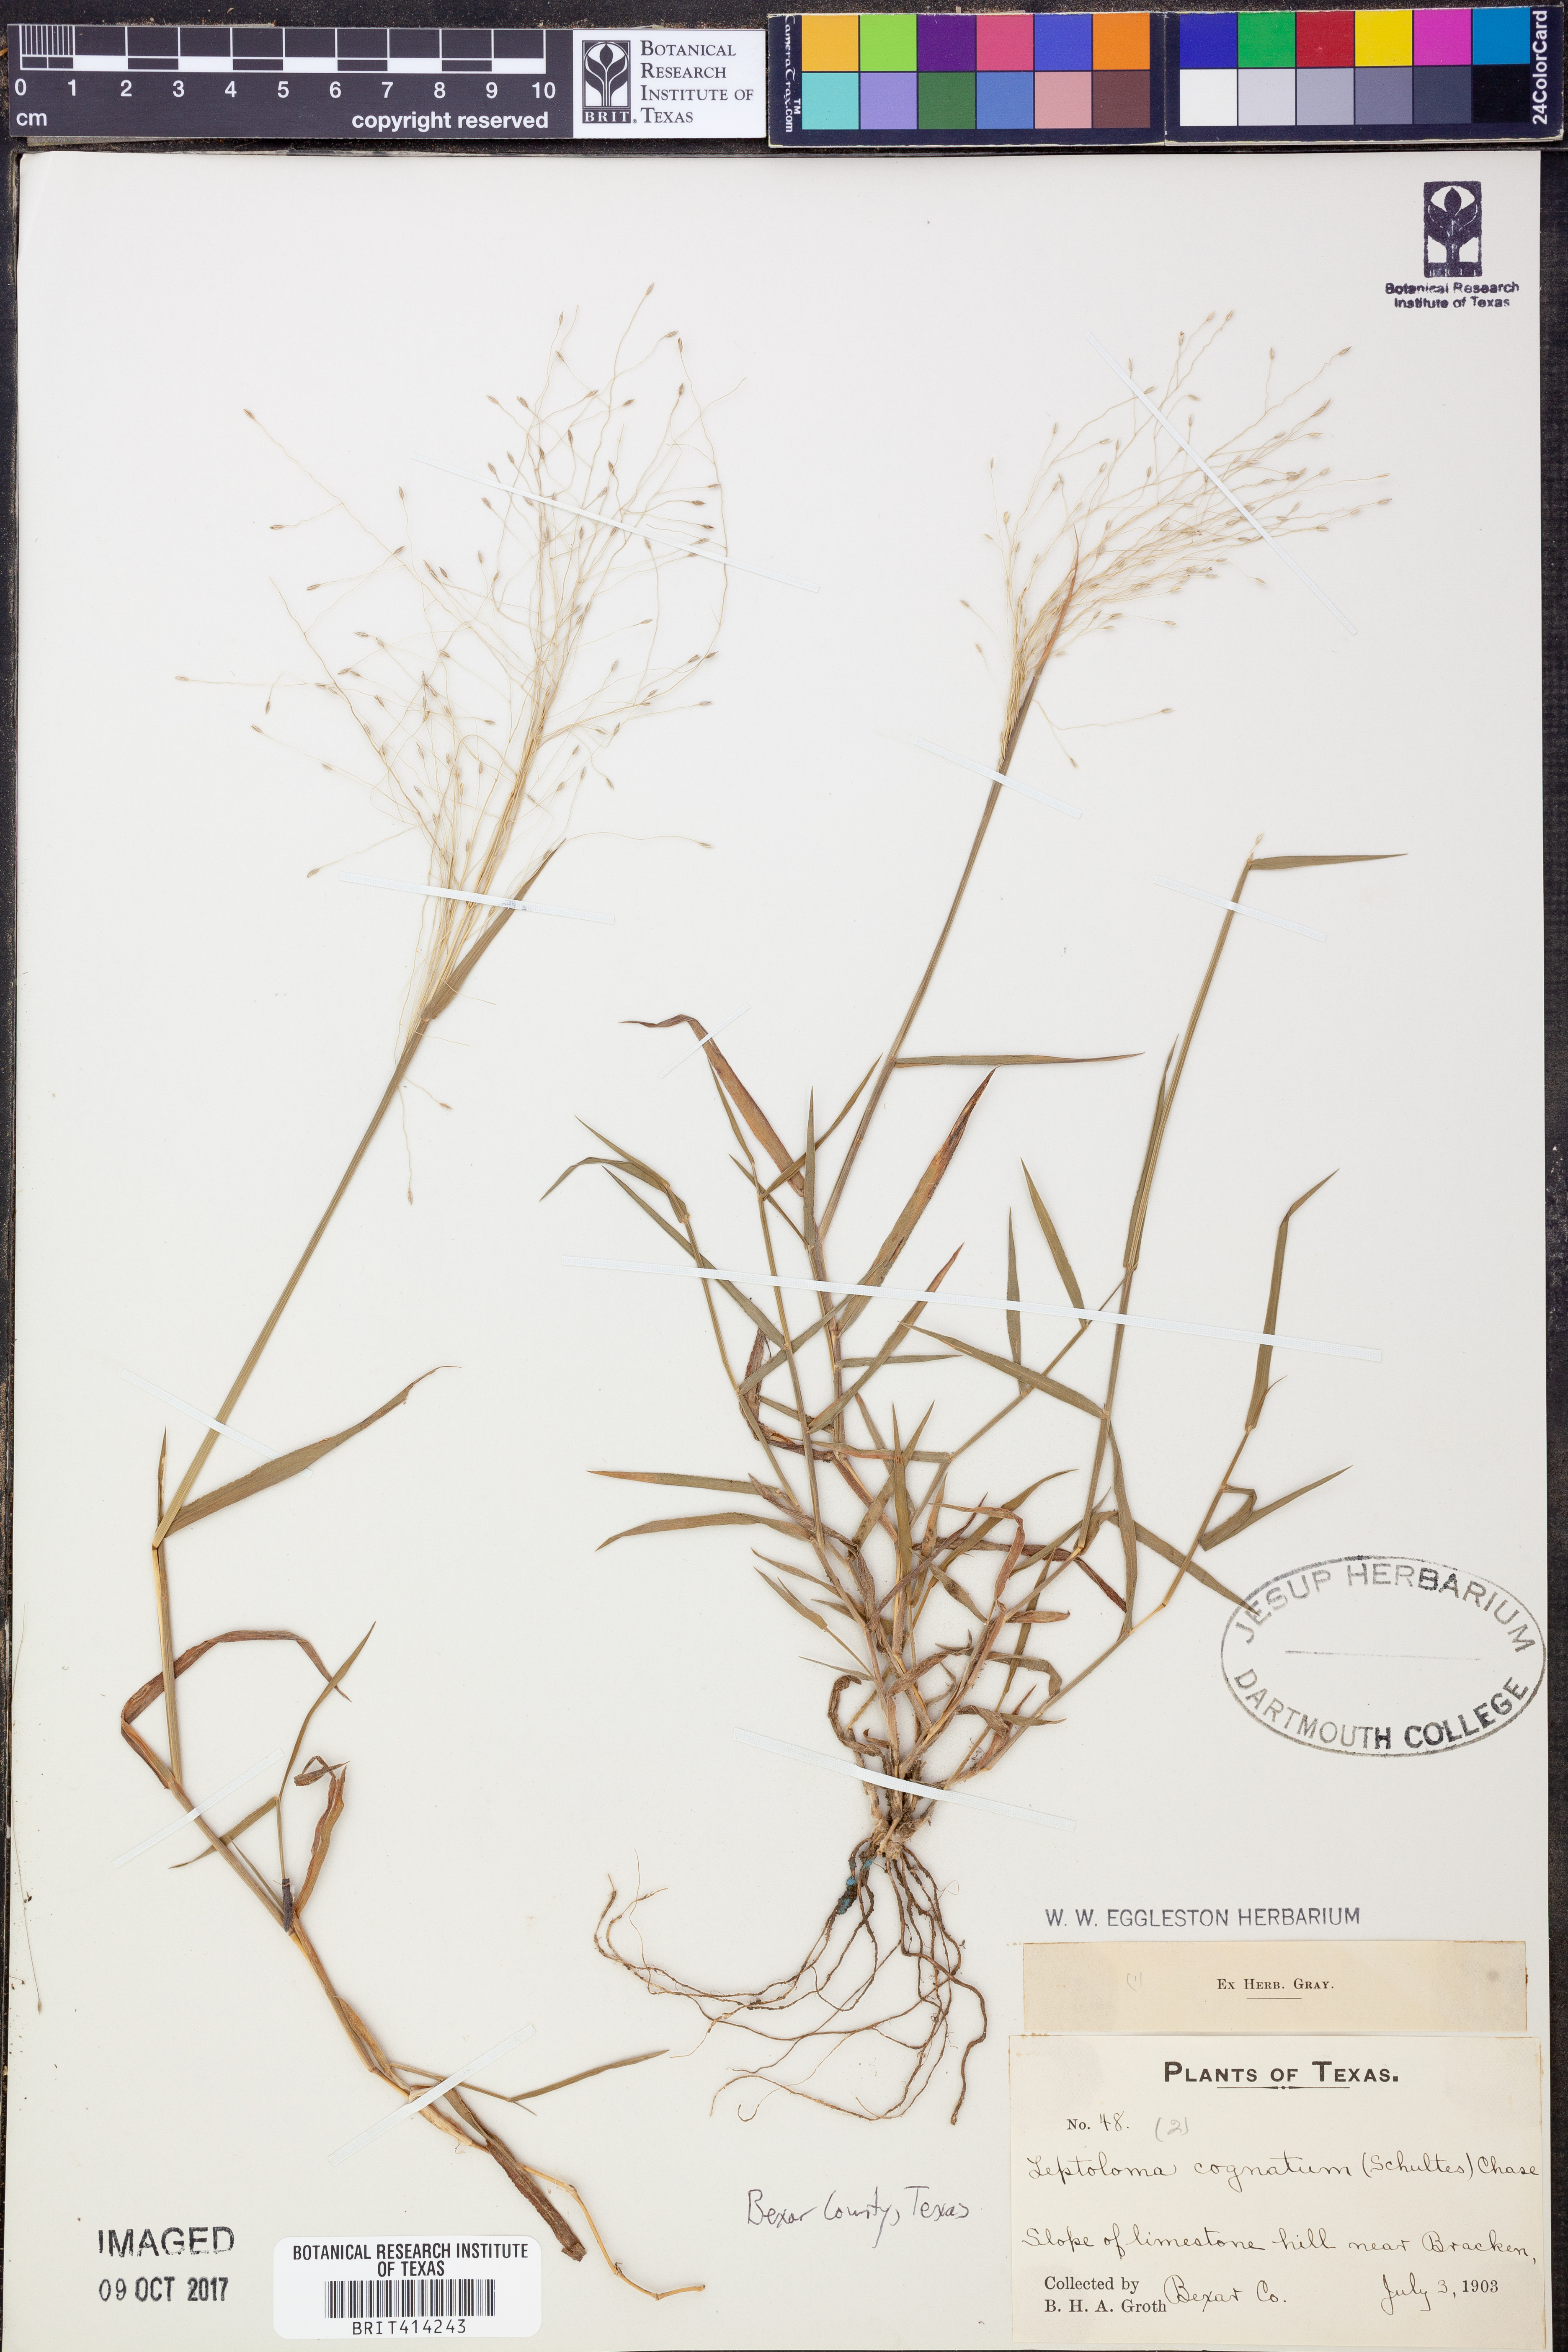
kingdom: Plantae
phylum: Tracheophyta
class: Liliopsida
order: Poales
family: Poaceae
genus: Digitaria
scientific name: Digitaria cognata
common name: Fall witchgrass
